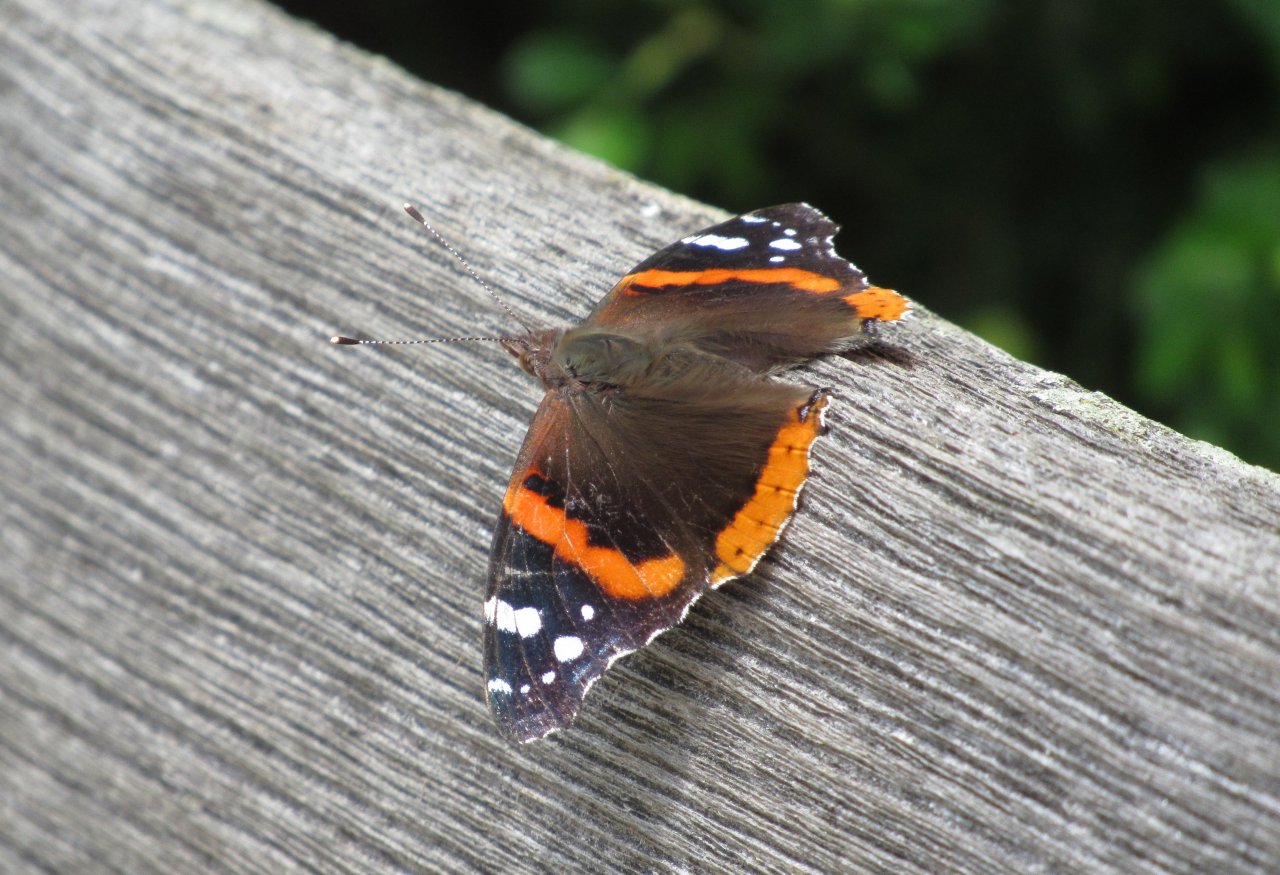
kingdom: Animalia
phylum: Arthropoda
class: Insecta
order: Lepidoptera
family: Nymphalidae
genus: Vanessa
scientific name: Vanessa atalanta
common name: Red Admiral
